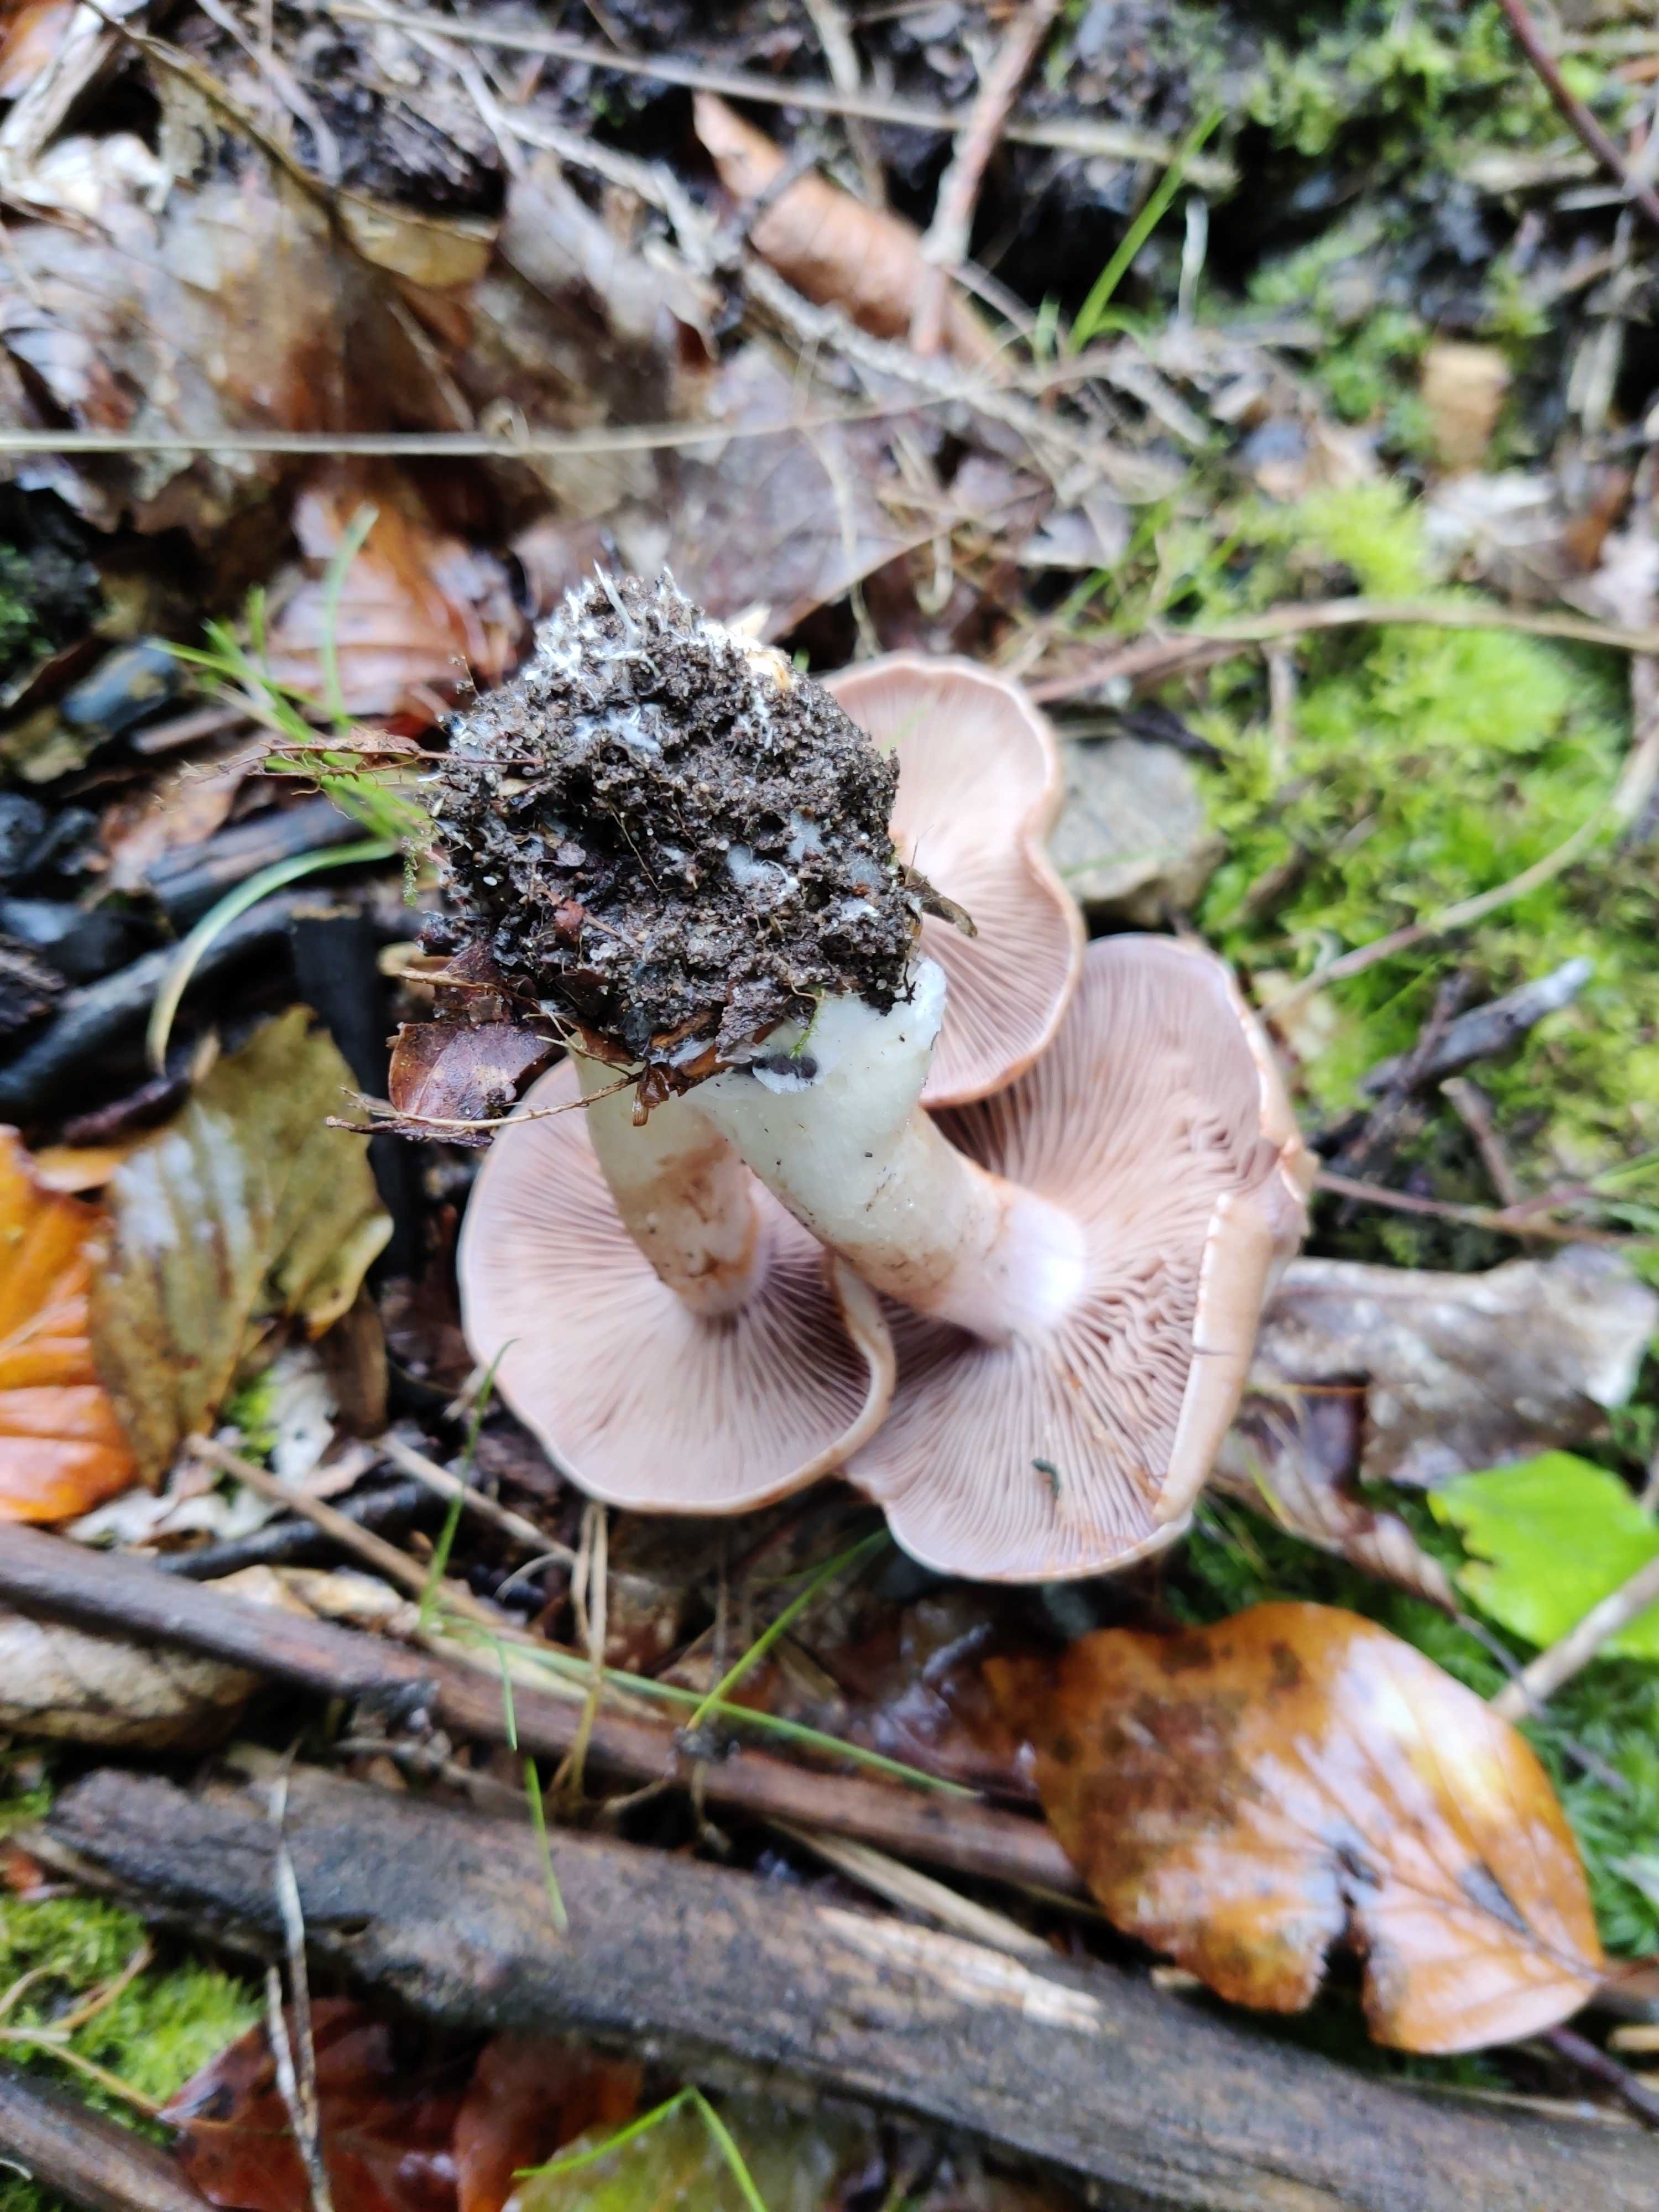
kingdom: Fungi
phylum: Basidiomycota
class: Agaricomycetes
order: Agaricales
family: Cortinariaceae
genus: Cortinarius
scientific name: Cortinarius
